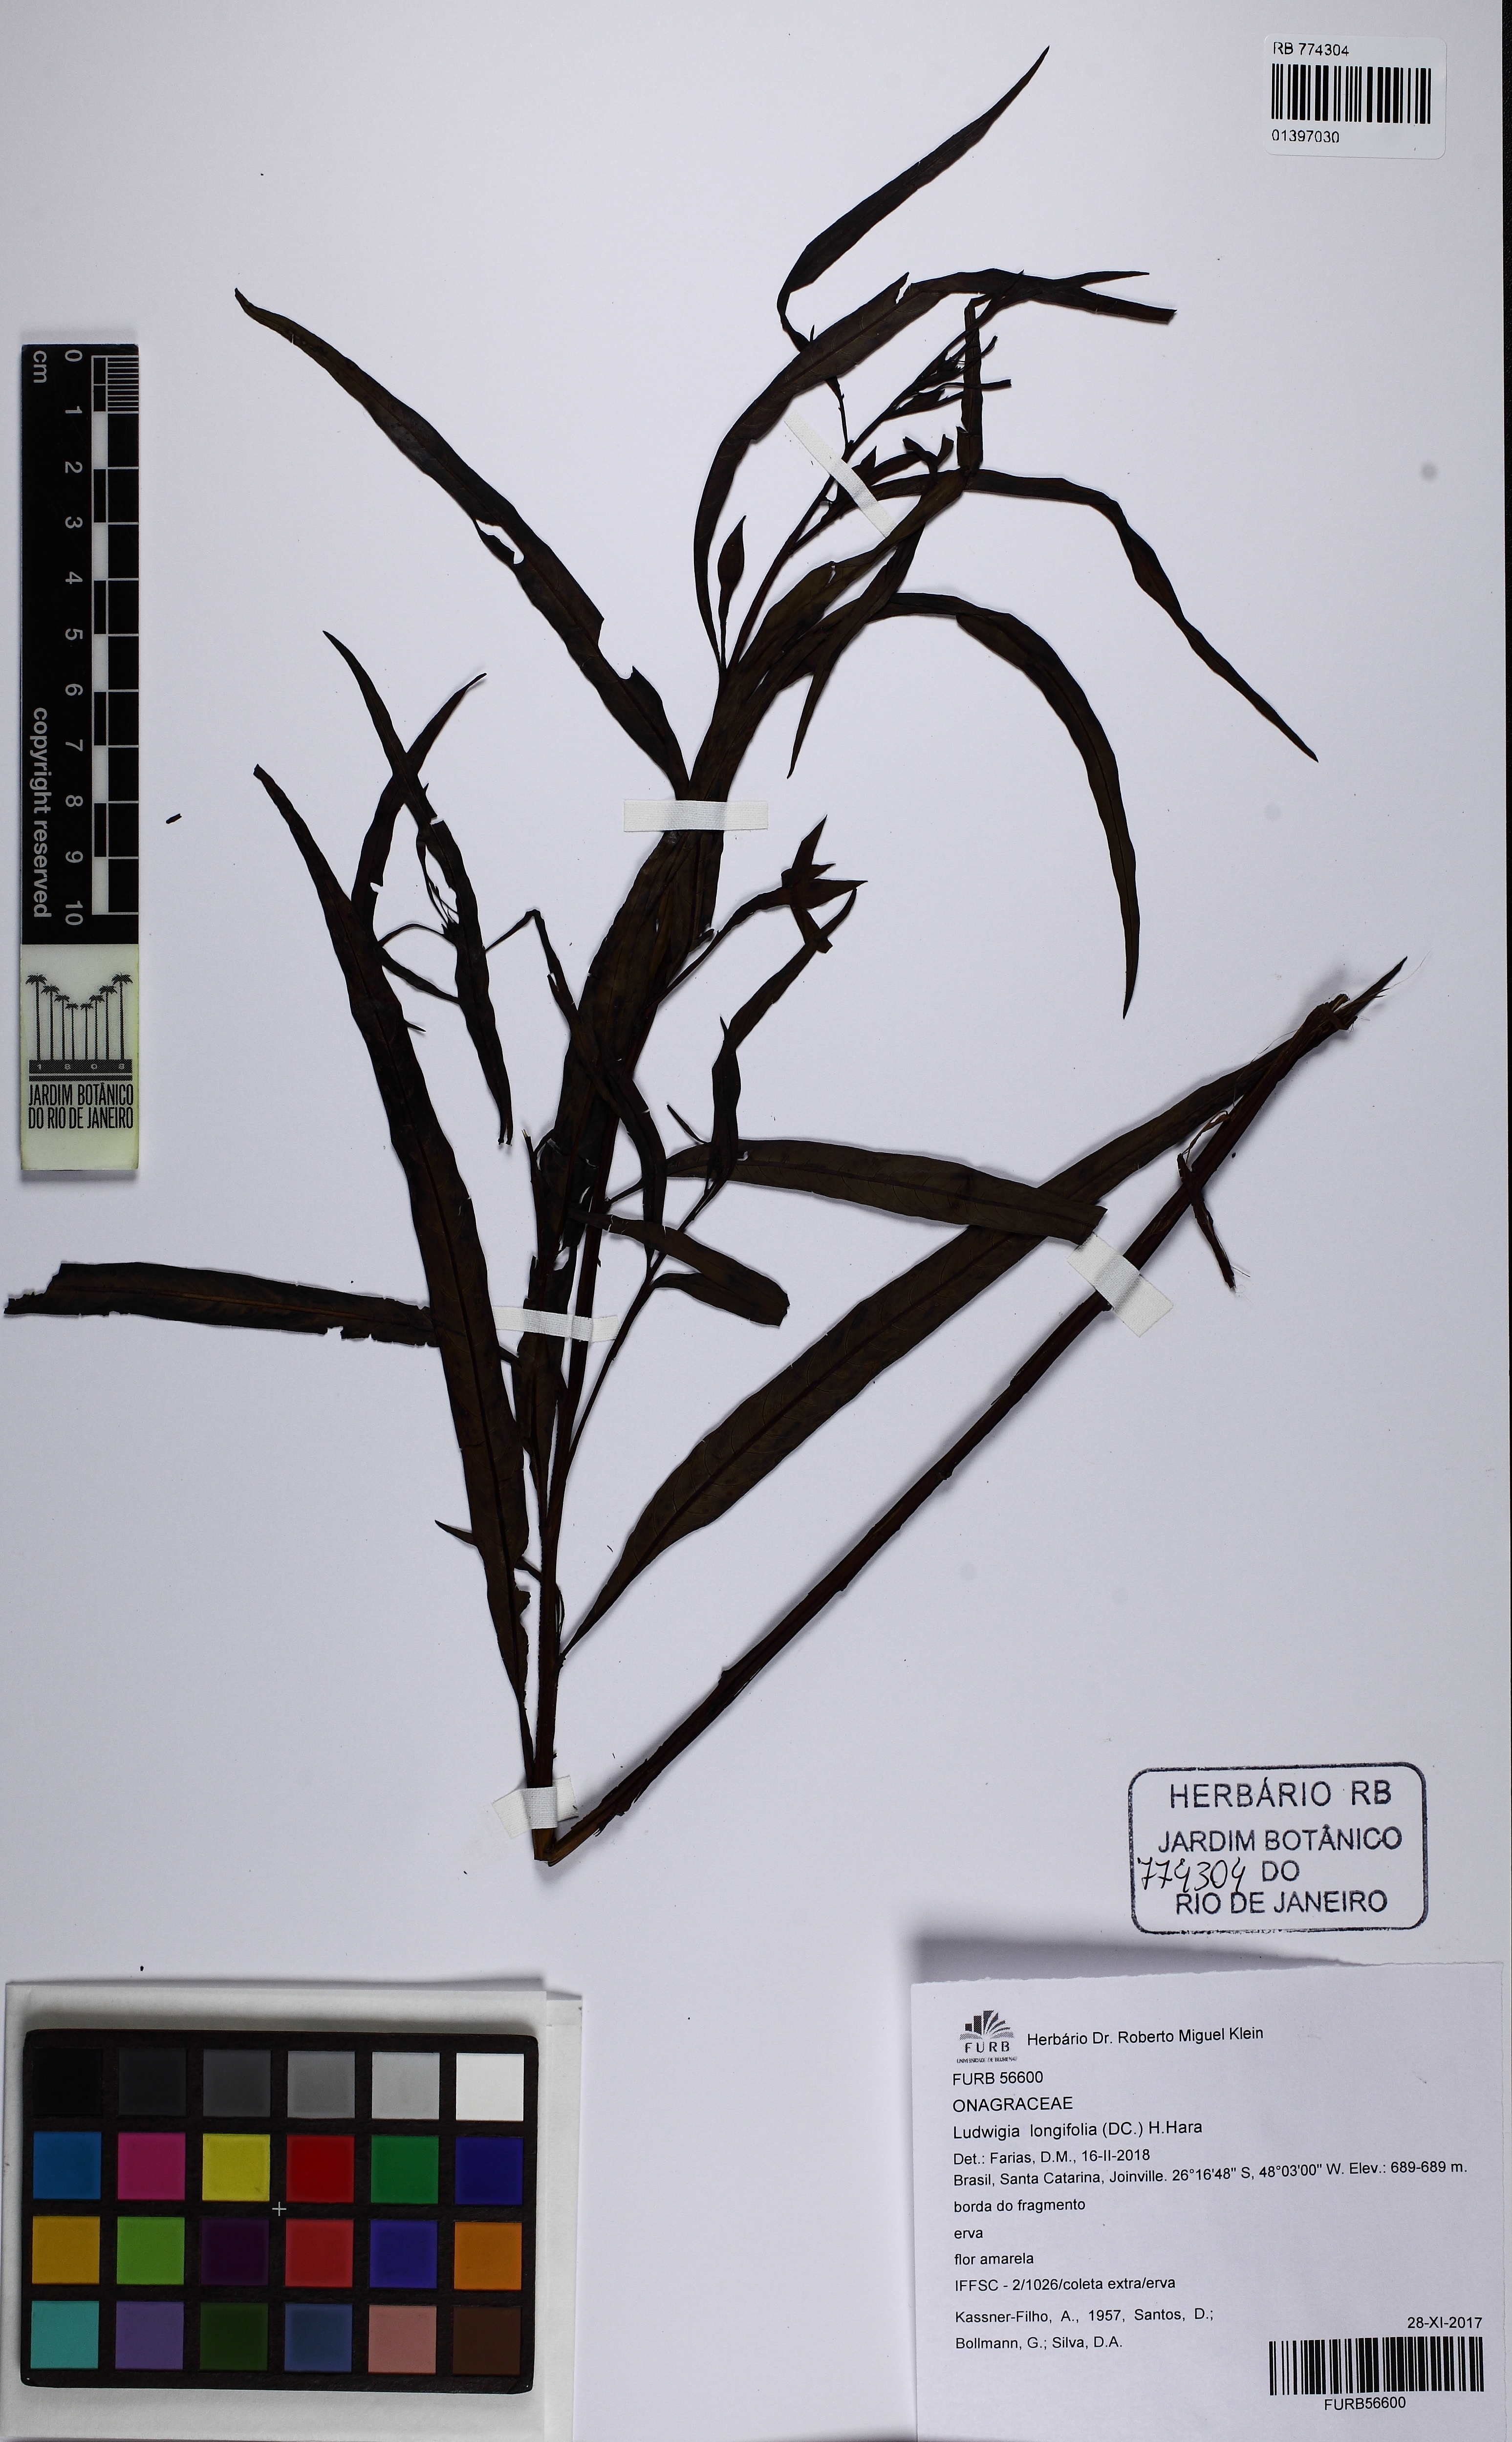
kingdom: Plantae
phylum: Tracheophyta
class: Magnoliopsida
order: Myrtales
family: Onagraceae
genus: Ludwigia
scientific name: Ludwigia longifolia
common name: Longleaf primrose-willow
